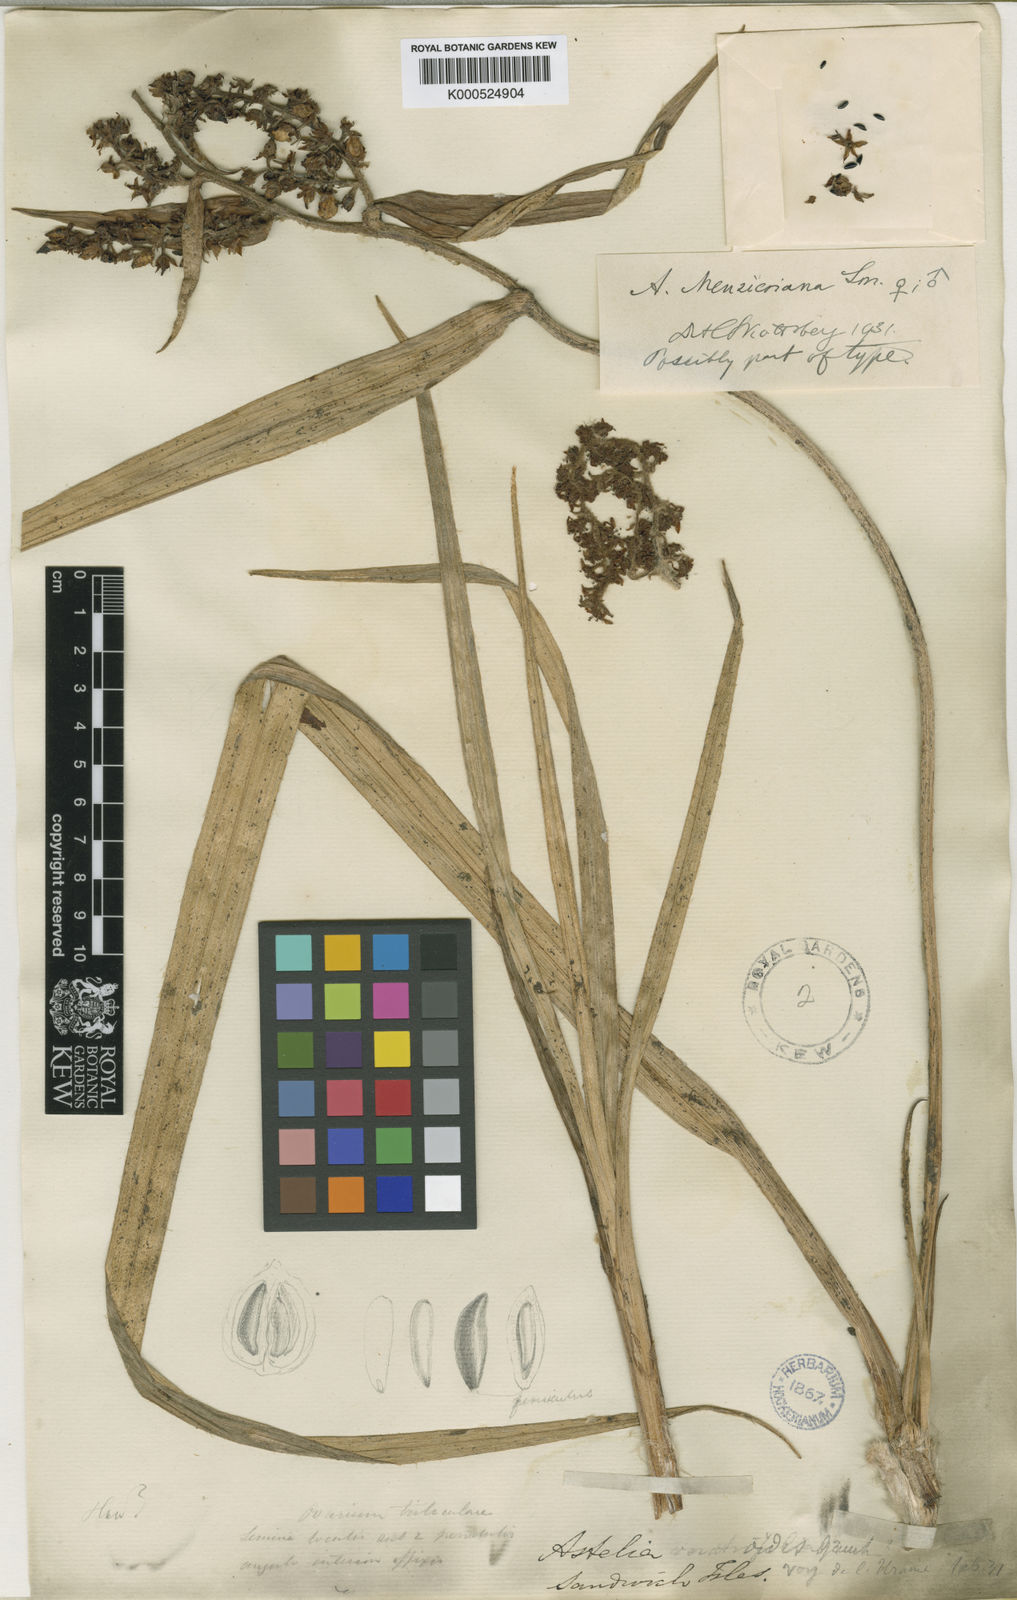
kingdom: Plantae
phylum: Tracheophyta
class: Liliopsida
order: Asparagales
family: Asteliaceae
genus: Astelia
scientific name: Astelia menziesiana
